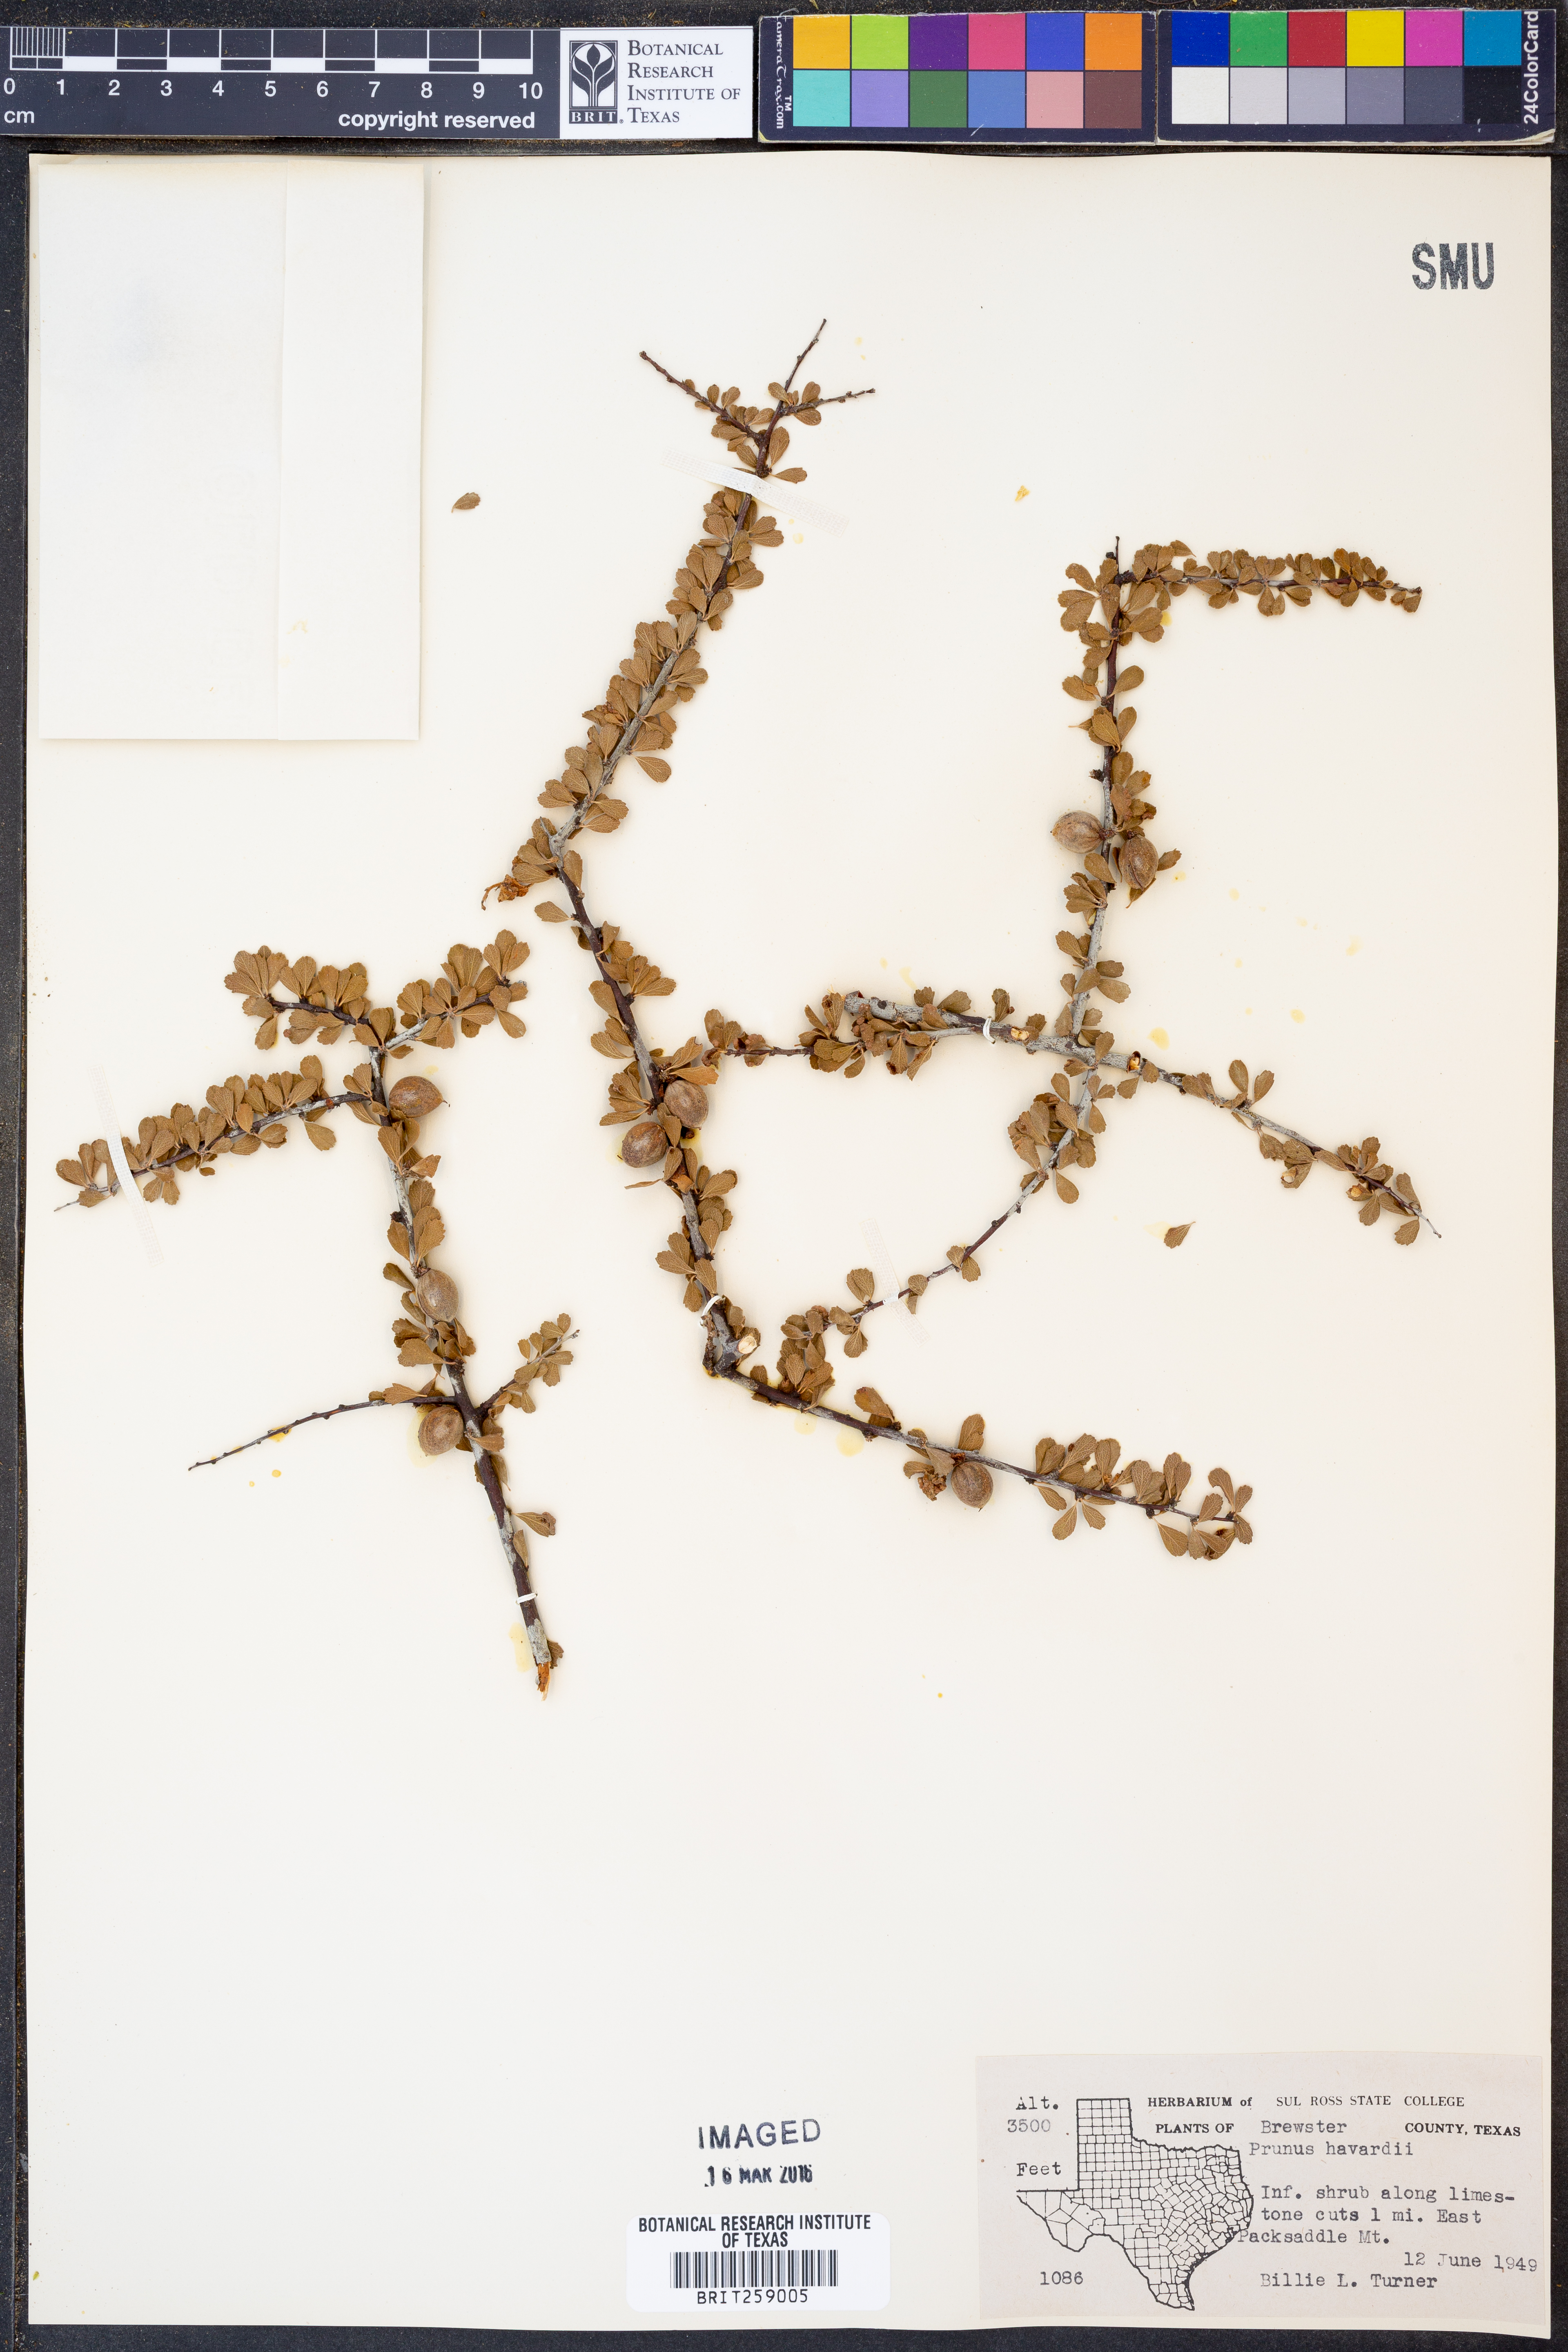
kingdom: Plantae
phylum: Tracheophyta
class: Magnoliopsida
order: Rosales
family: Rosaceae
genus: Prunus
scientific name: Prunus havardii
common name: Havard plum
